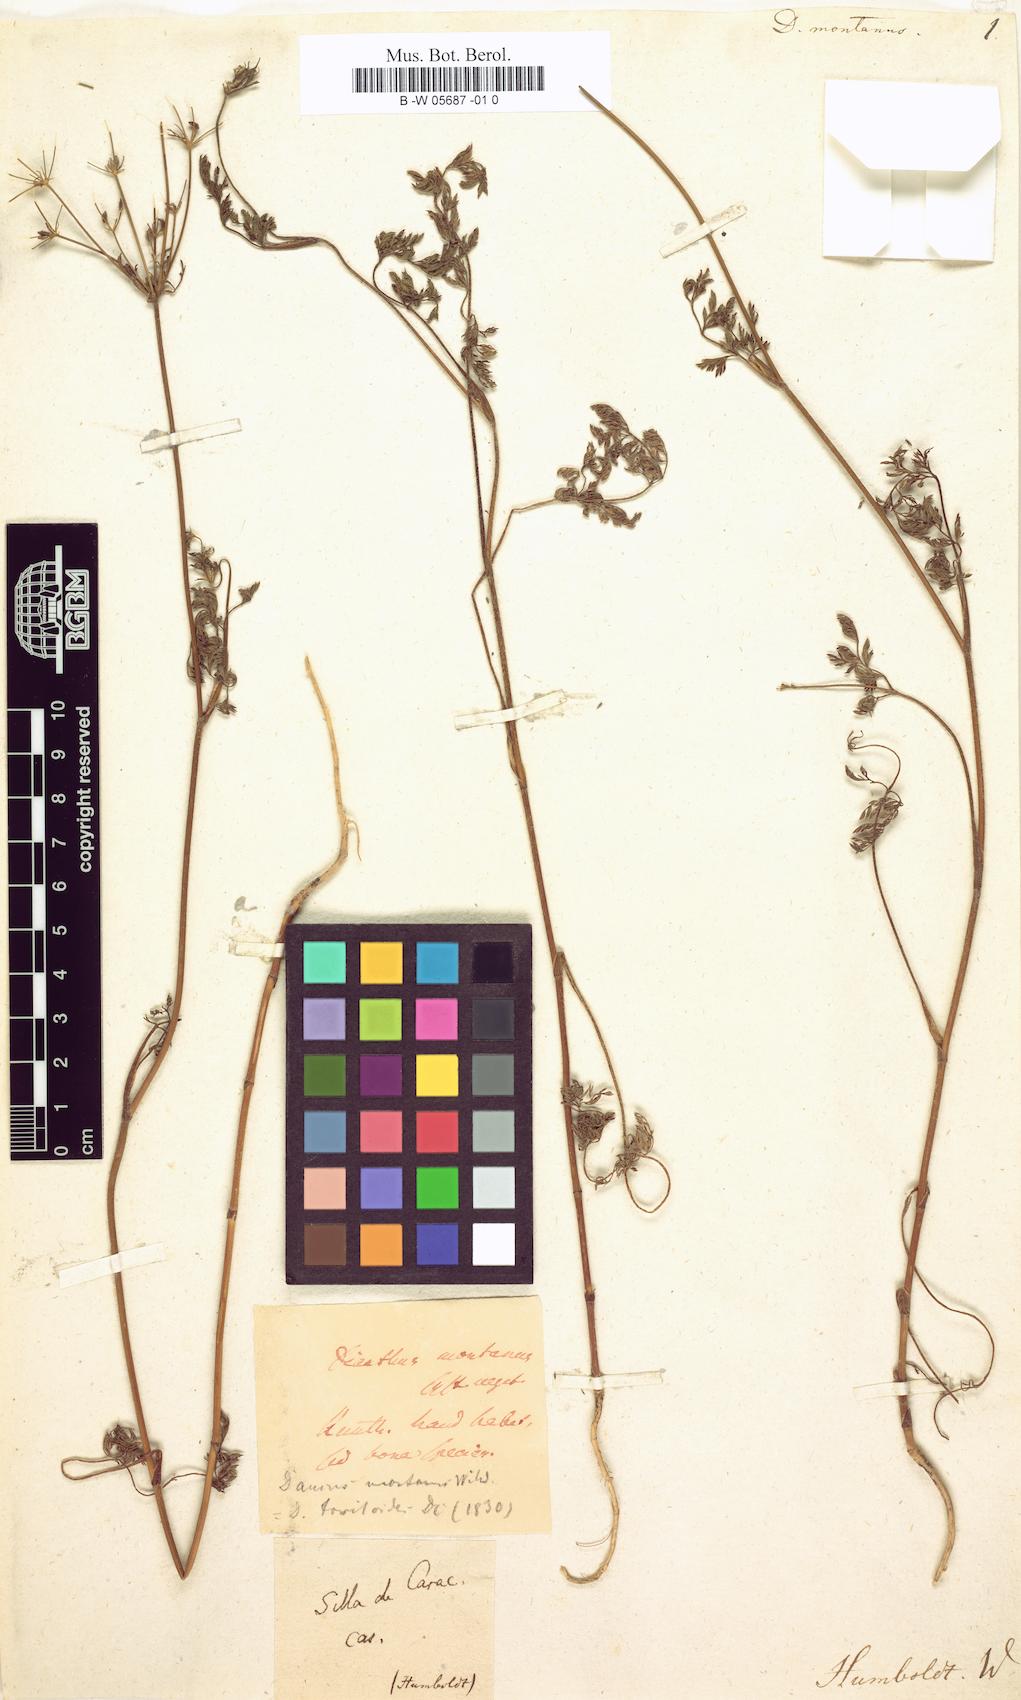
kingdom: Plantae
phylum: Tracheophyta
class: Magnoliopsida
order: Apiales
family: Apiaceae
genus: Daucus
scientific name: Daucus montanus
